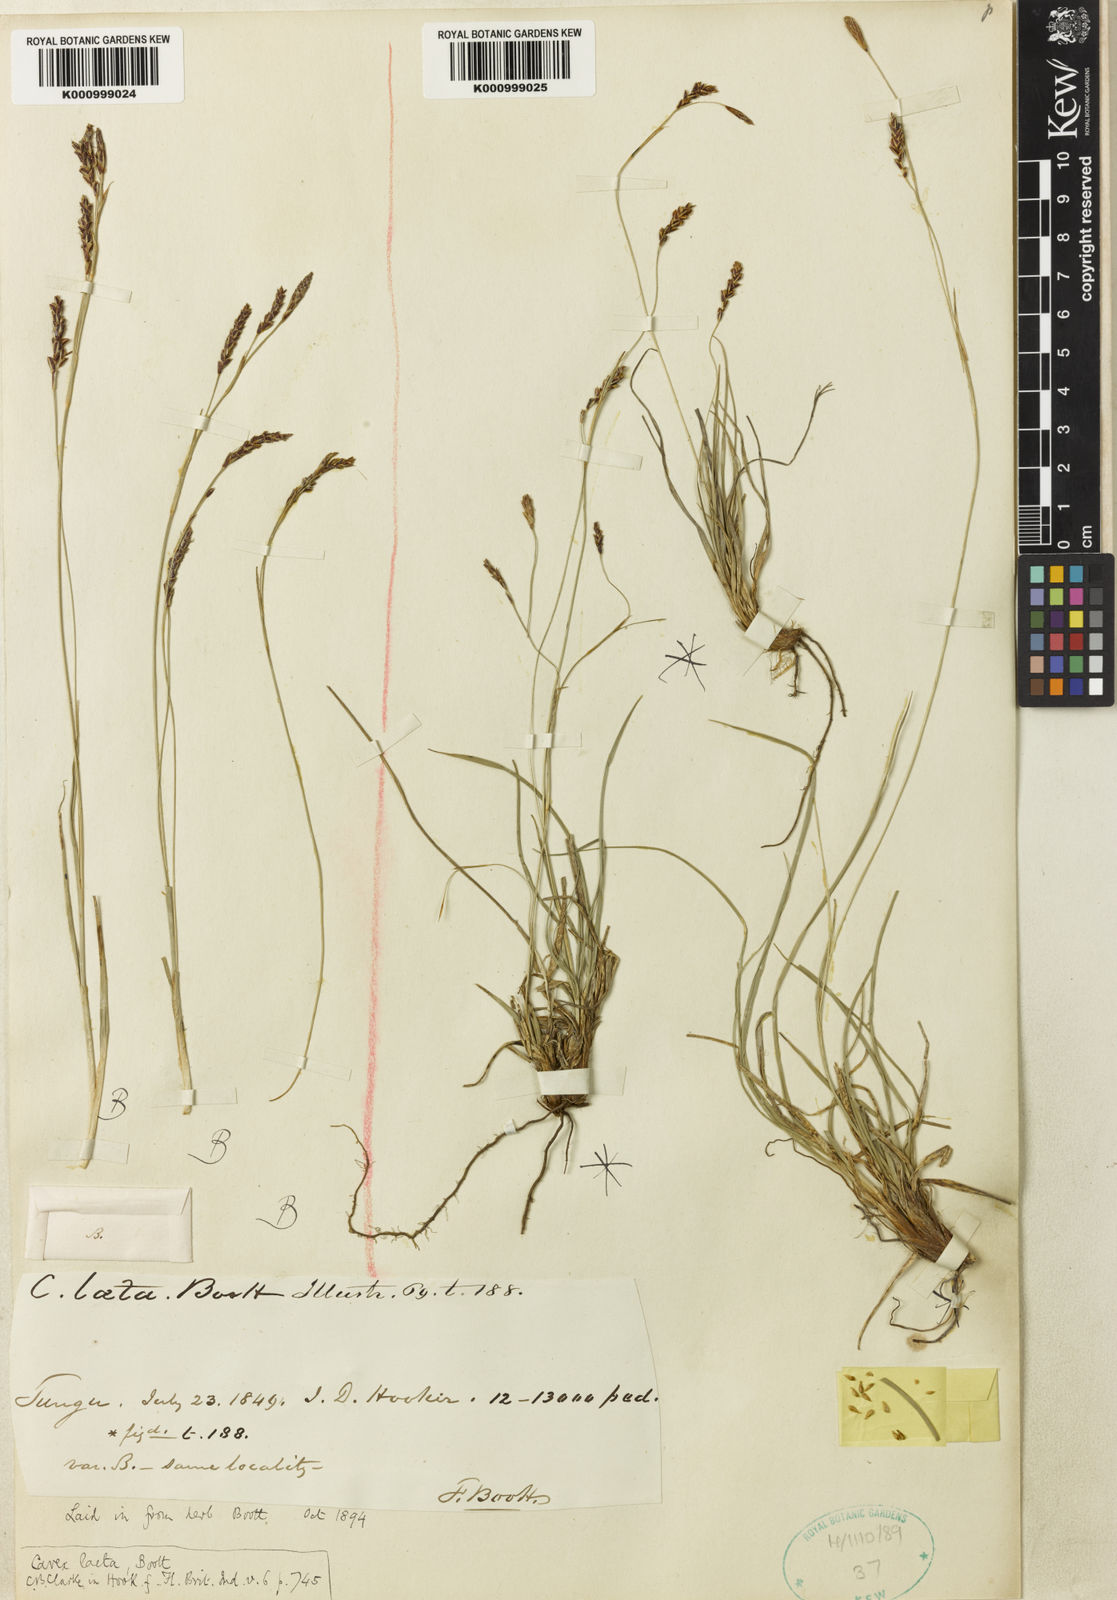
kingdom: Plantae
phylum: Tracheophyta
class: Liliopsida
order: Poales
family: Cyperaceae
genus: Carex
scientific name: Carex laeta
